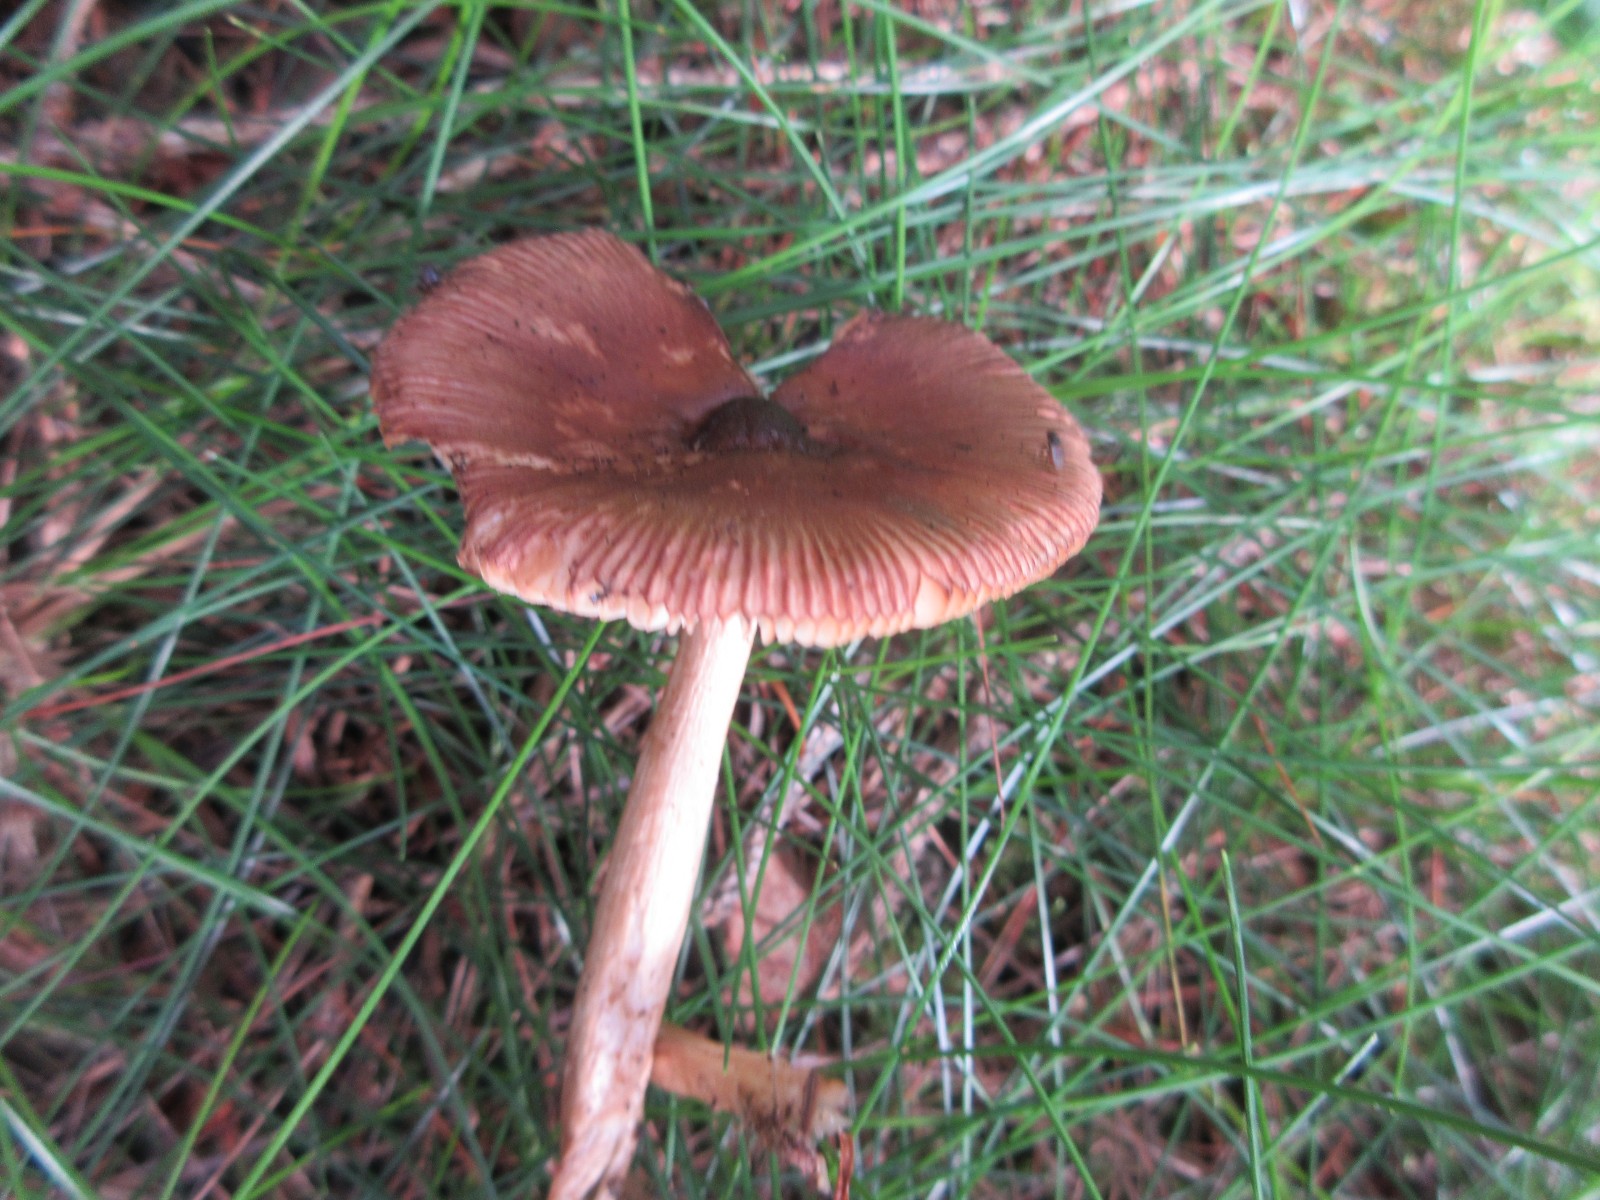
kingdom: Fungi
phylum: Basidiomycota
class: Agaricomycetes
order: Agaricales
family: Amanitaceae
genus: Amanita
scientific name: Amanita fulva
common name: brun kam-fluesvamp
